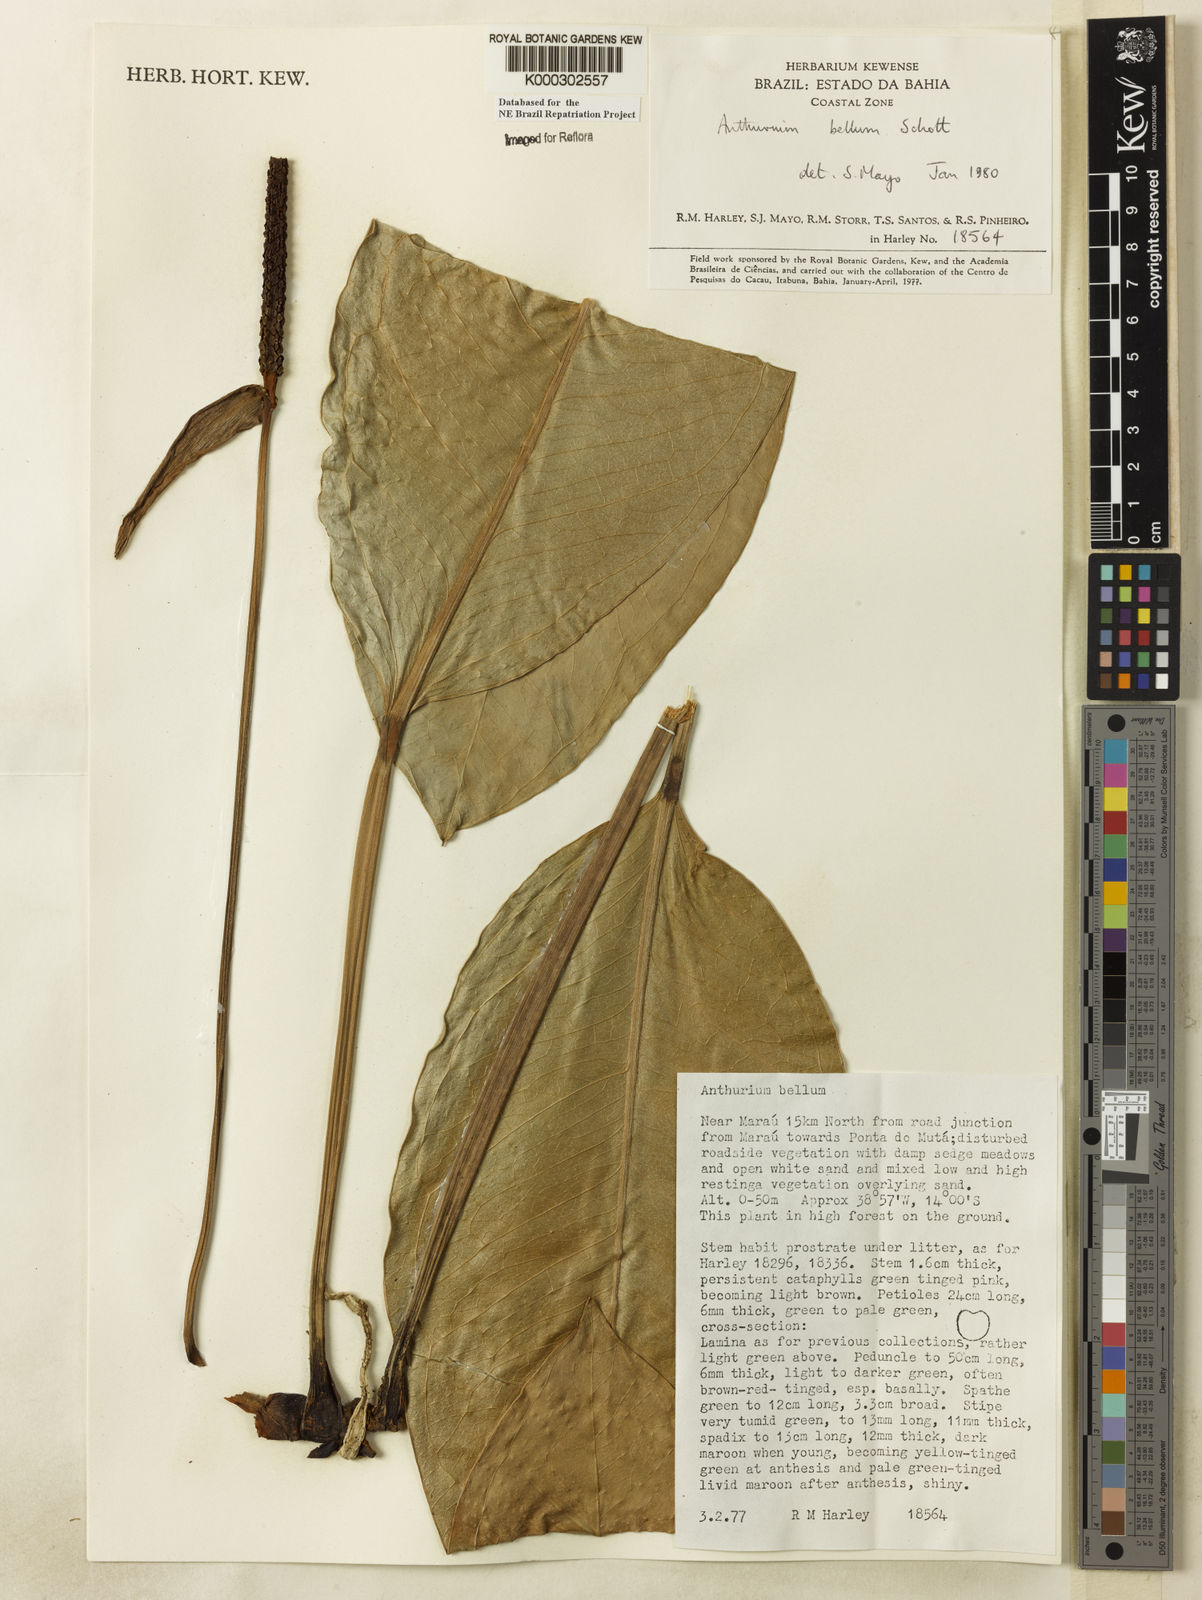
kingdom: Plantae
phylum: Tracheophyta
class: Liliopsida
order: Alismatales
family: Araceae
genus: Anthurium
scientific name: Anthurium bellum
